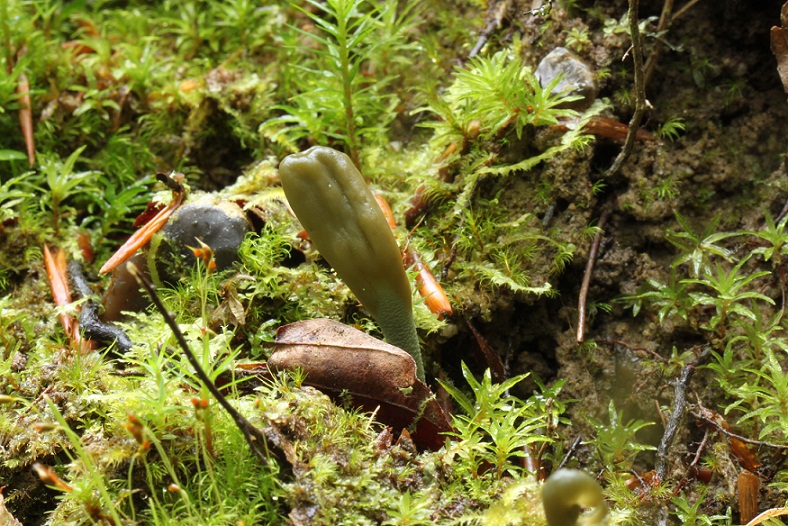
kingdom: Fungi
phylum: Ascomycota
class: Leotiomycetes
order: Leotiales
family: Leotiaceae
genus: Microglossum
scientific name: Microglossum griseoviride
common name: grågrøn farvetunge
